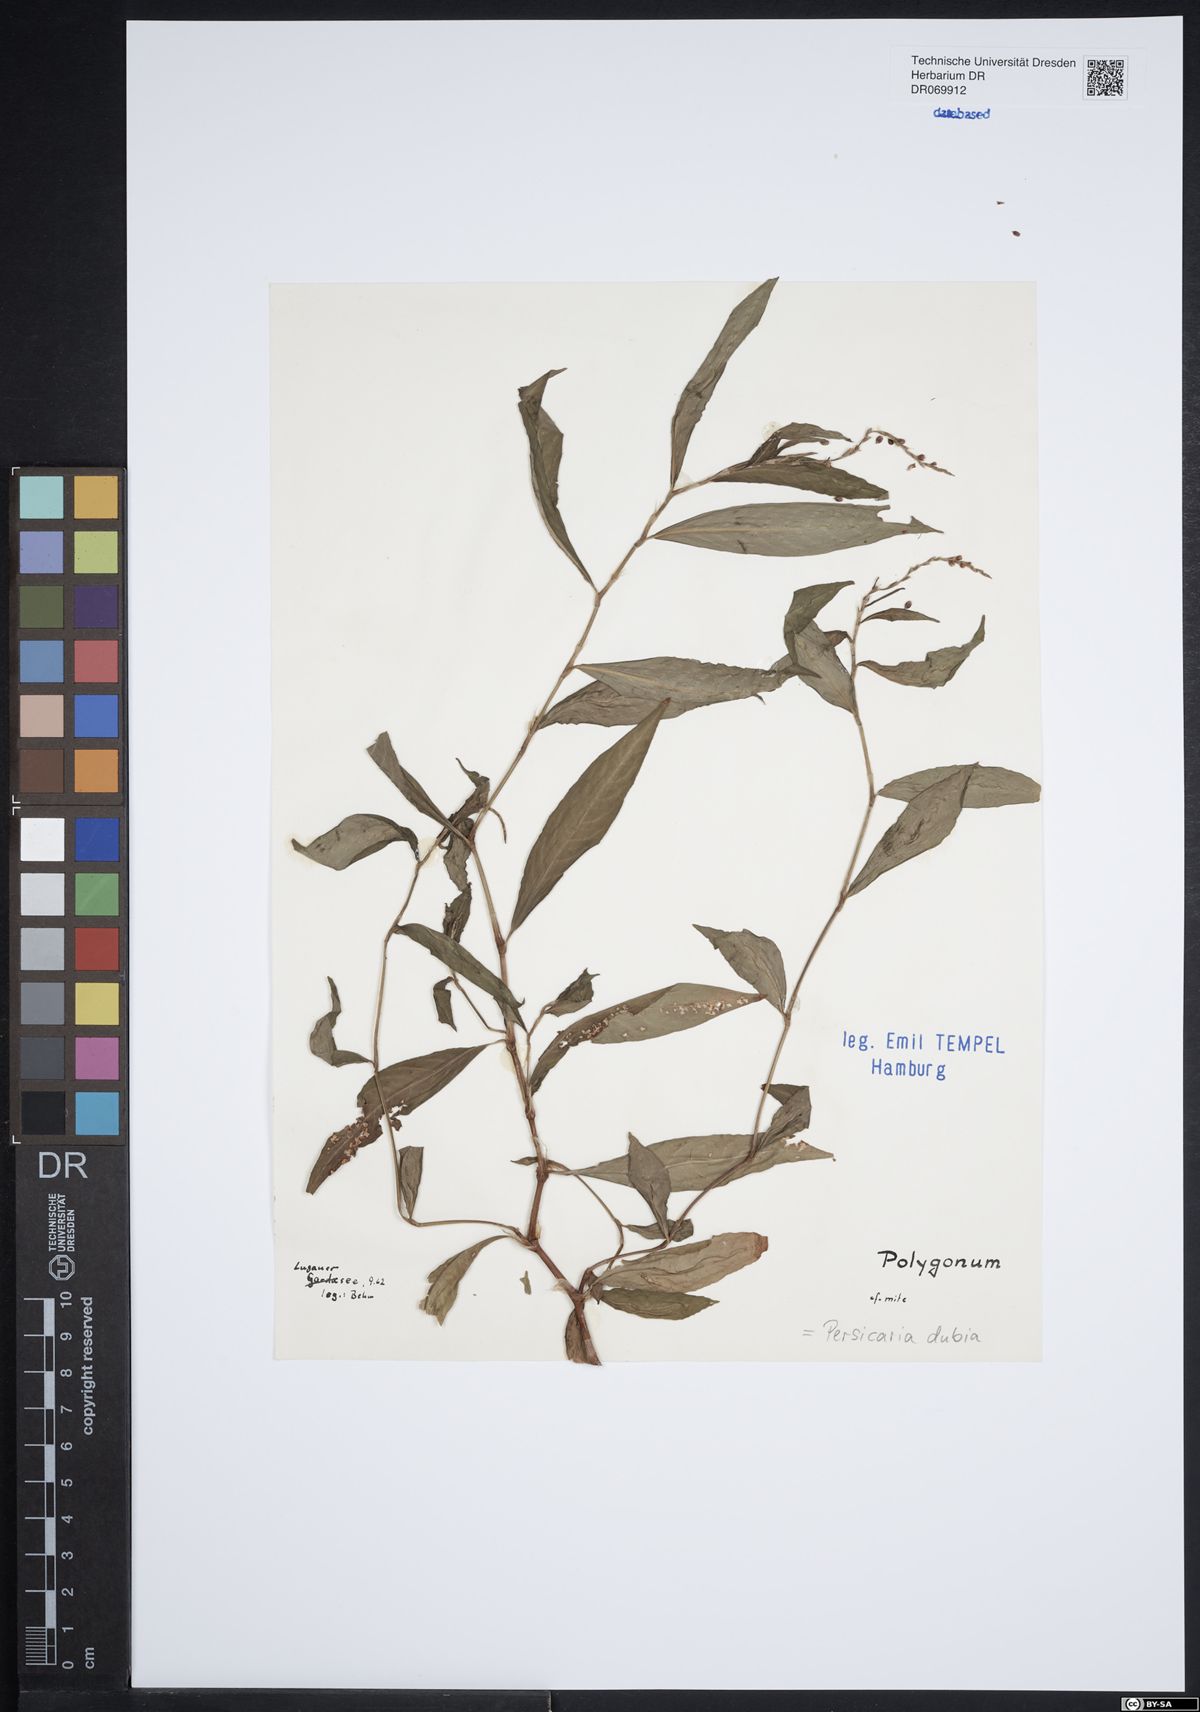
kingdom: Plantae
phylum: Tracheophyta
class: Magnoliopsida
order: Caryophyllales
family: Polygonaceae
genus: Persicaria
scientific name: Persicaria mitis
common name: Tasteless water-pepper
